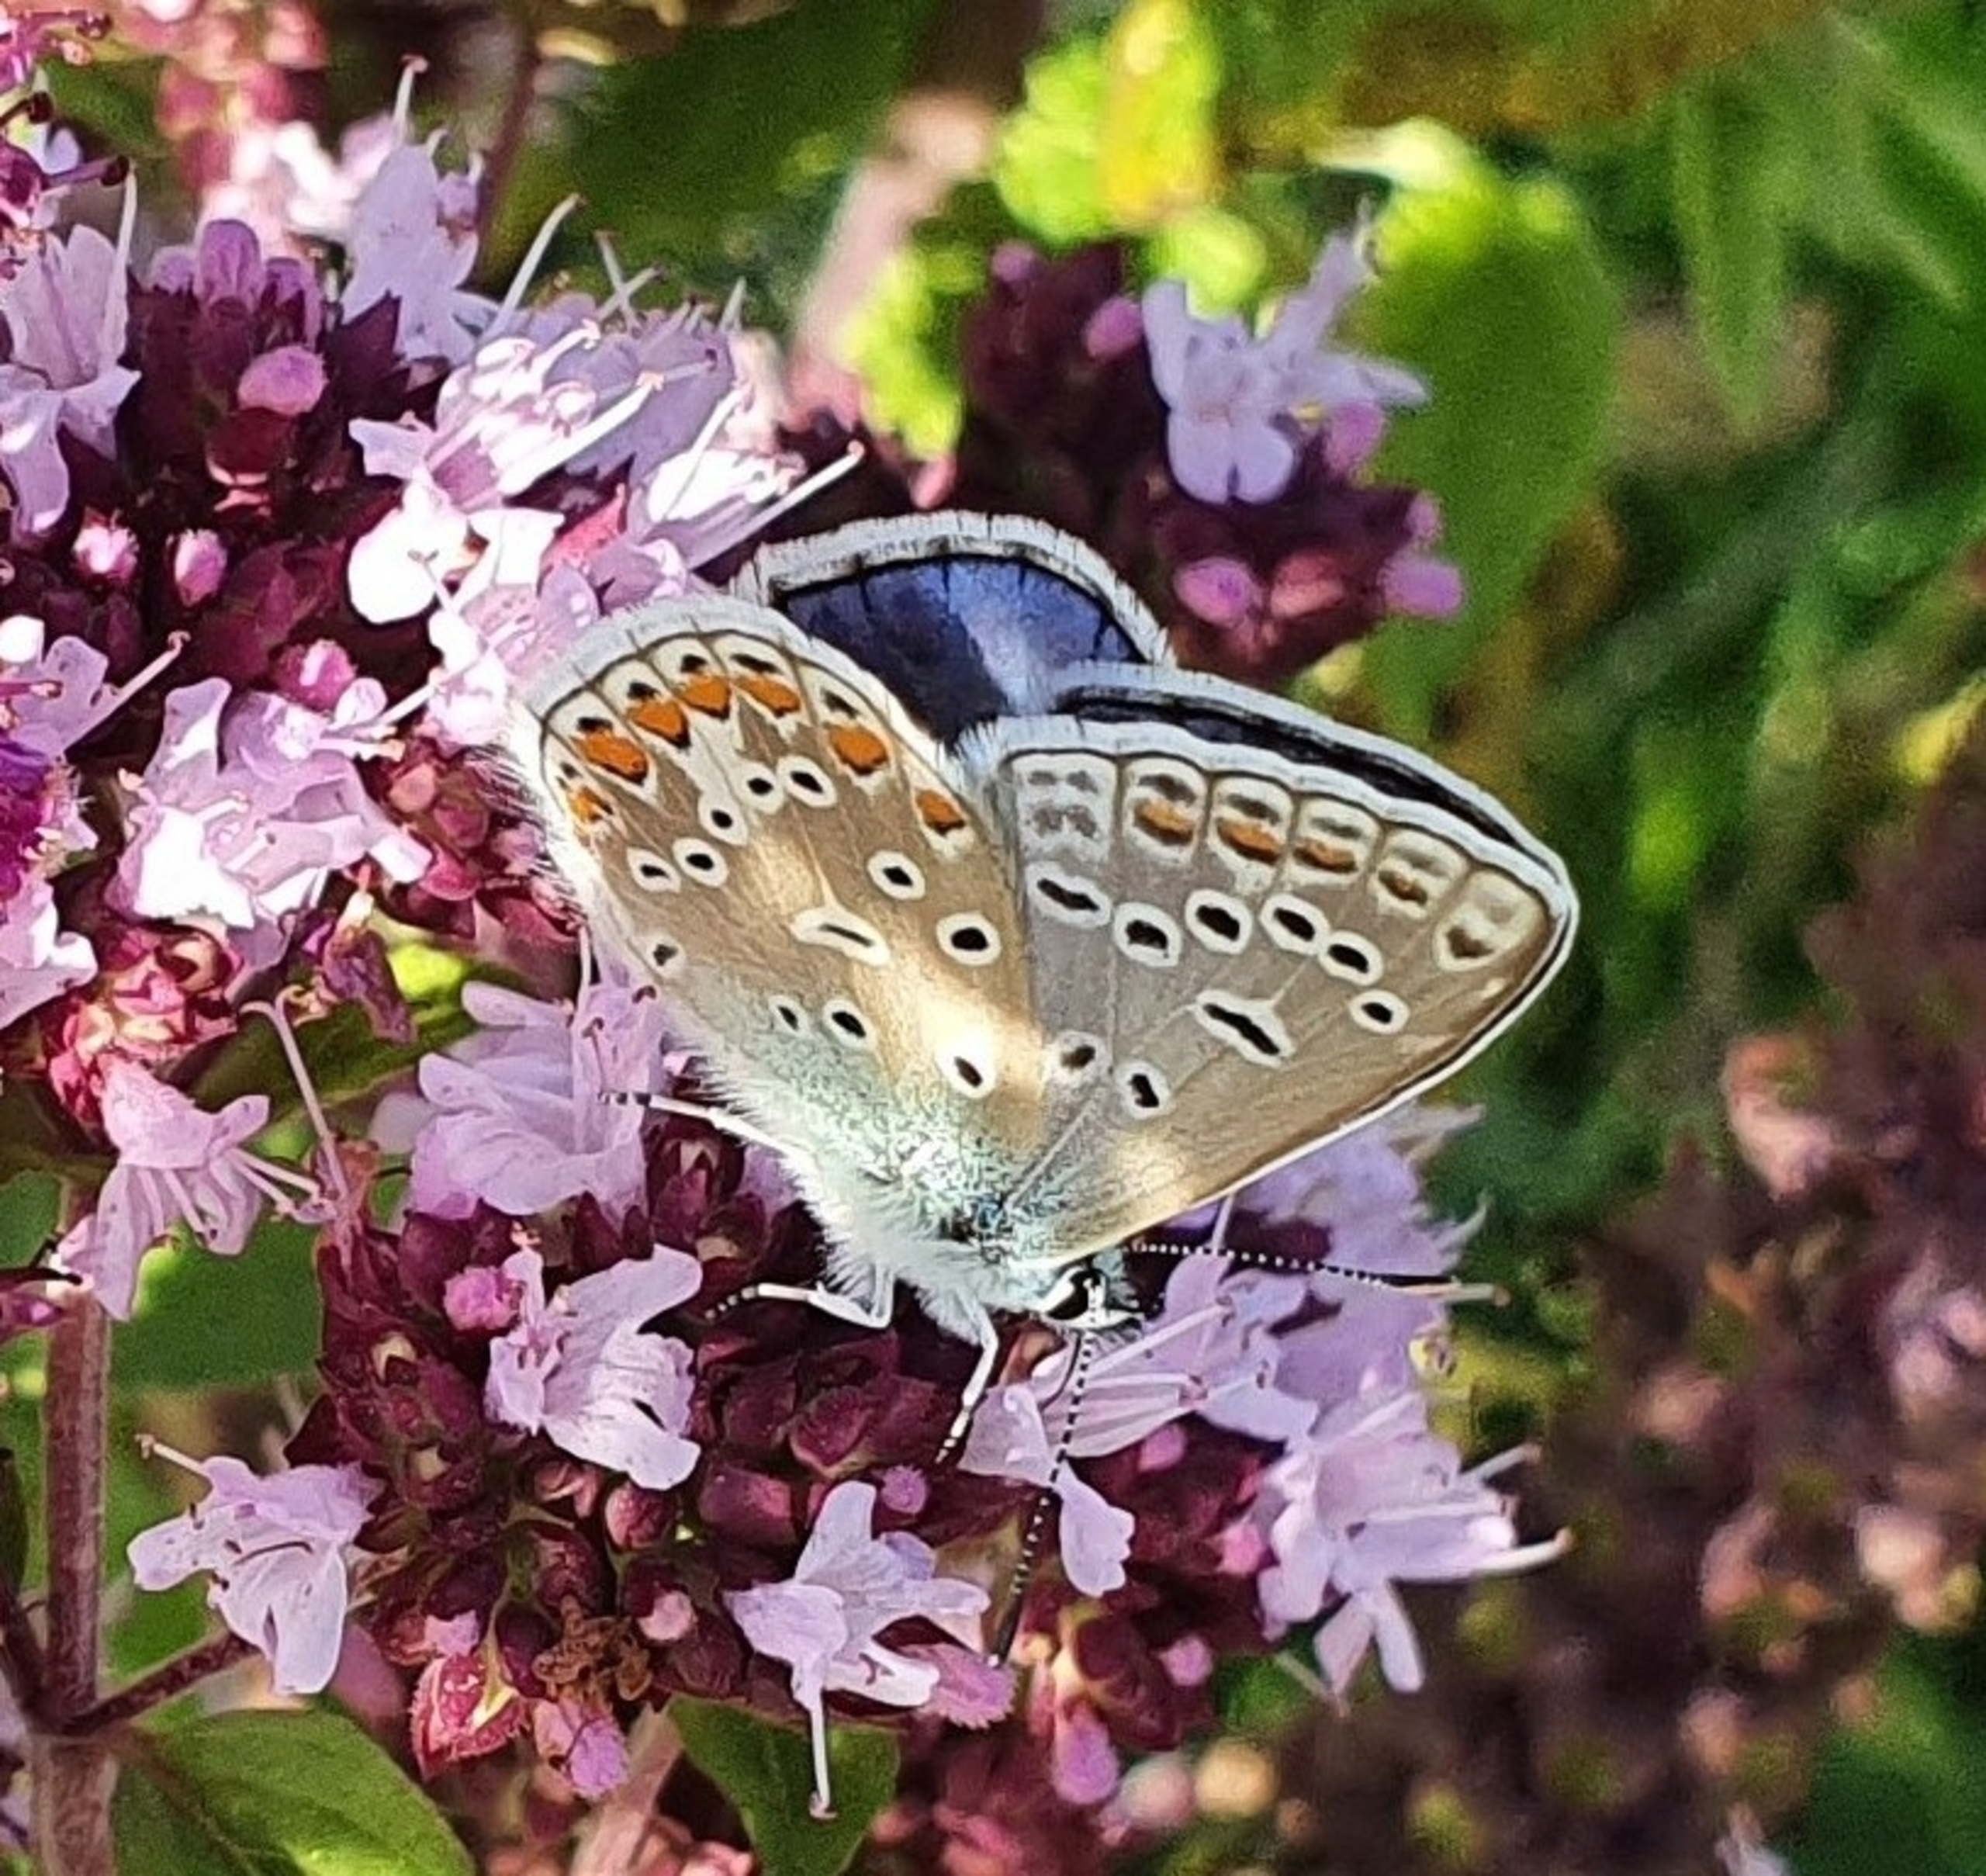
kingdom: Animalia
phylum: Arthropoda
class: Insecta
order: Lepidoptera
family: Lycaenidae
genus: Polyommatus
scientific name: Polyommatus icarus
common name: Almindelig blåfugl
